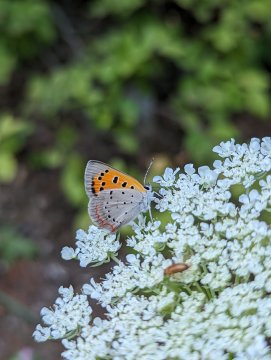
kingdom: Animalia
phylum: Arthropoda
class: Insecta
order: Lepidoptera
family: Lycaenidae
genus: Lycaena
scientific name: Lycaena phlaeas
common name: American Copper
